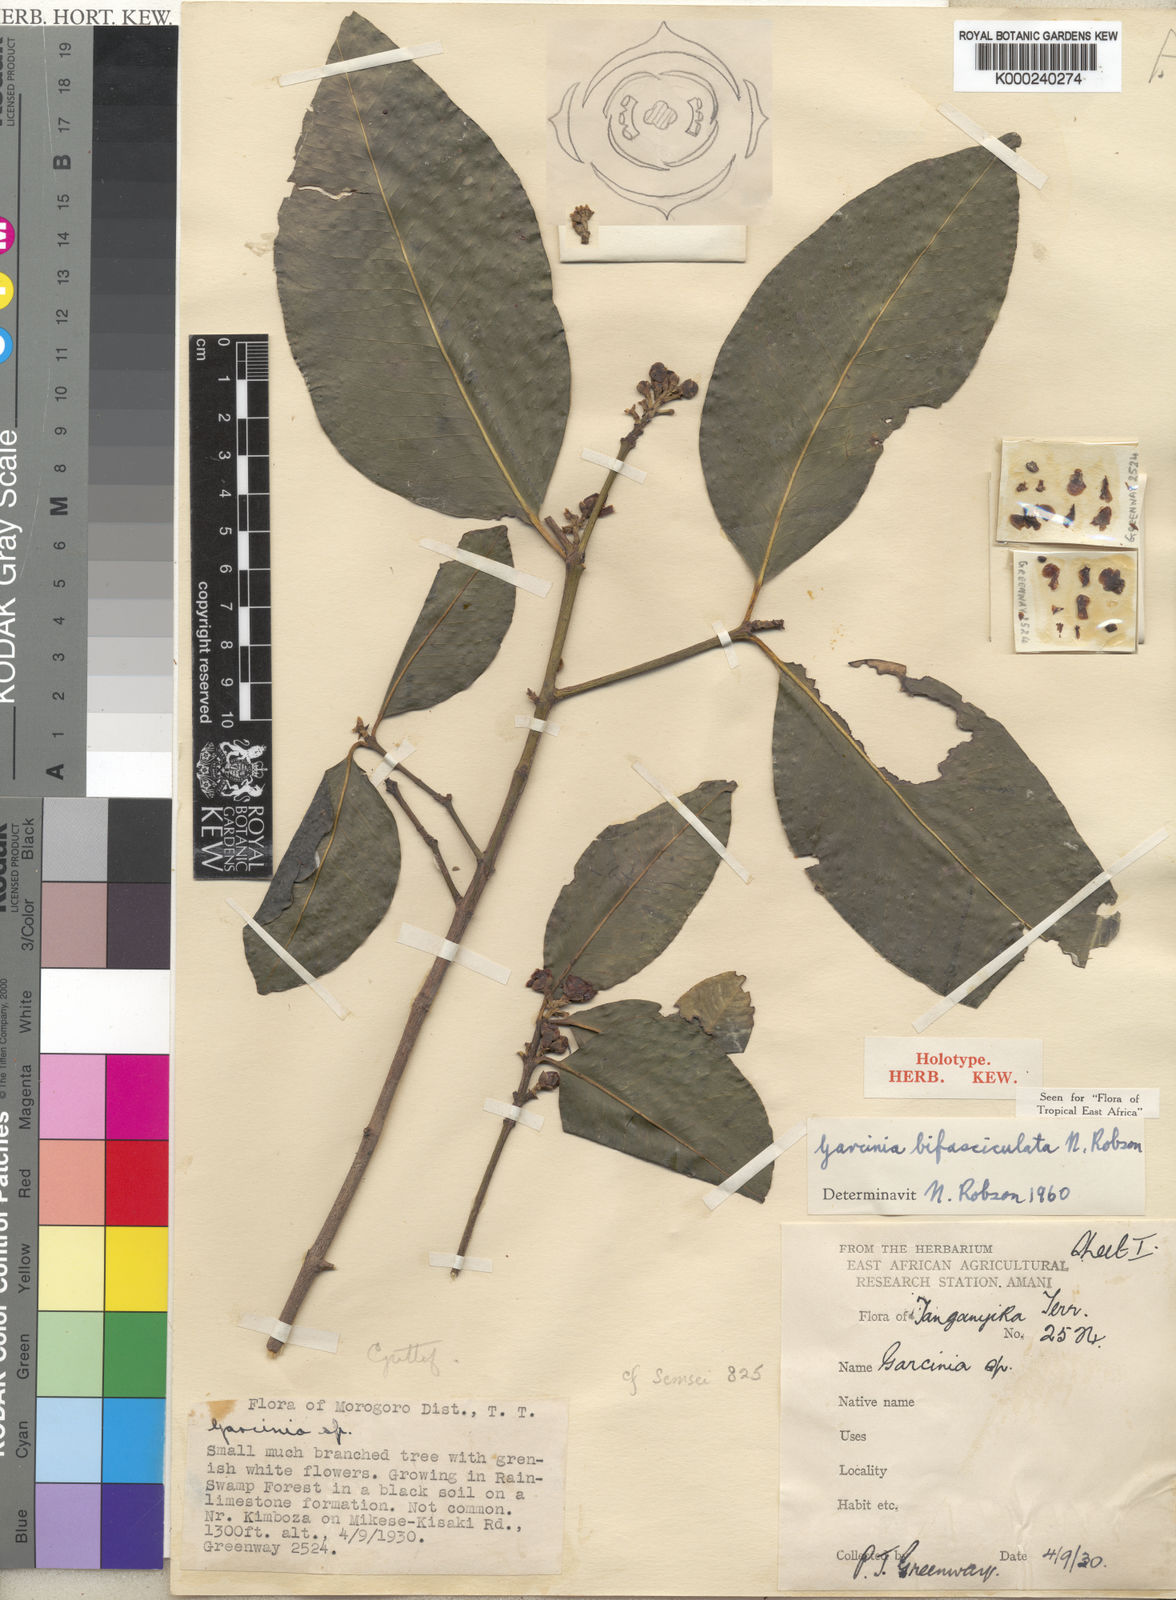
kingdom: Plantae
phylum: Tracheophyta
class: Magnoliopsida
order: Malpighiales
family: Clusiaceae
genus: Garcinia
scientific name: Garcinia bifasciculata
